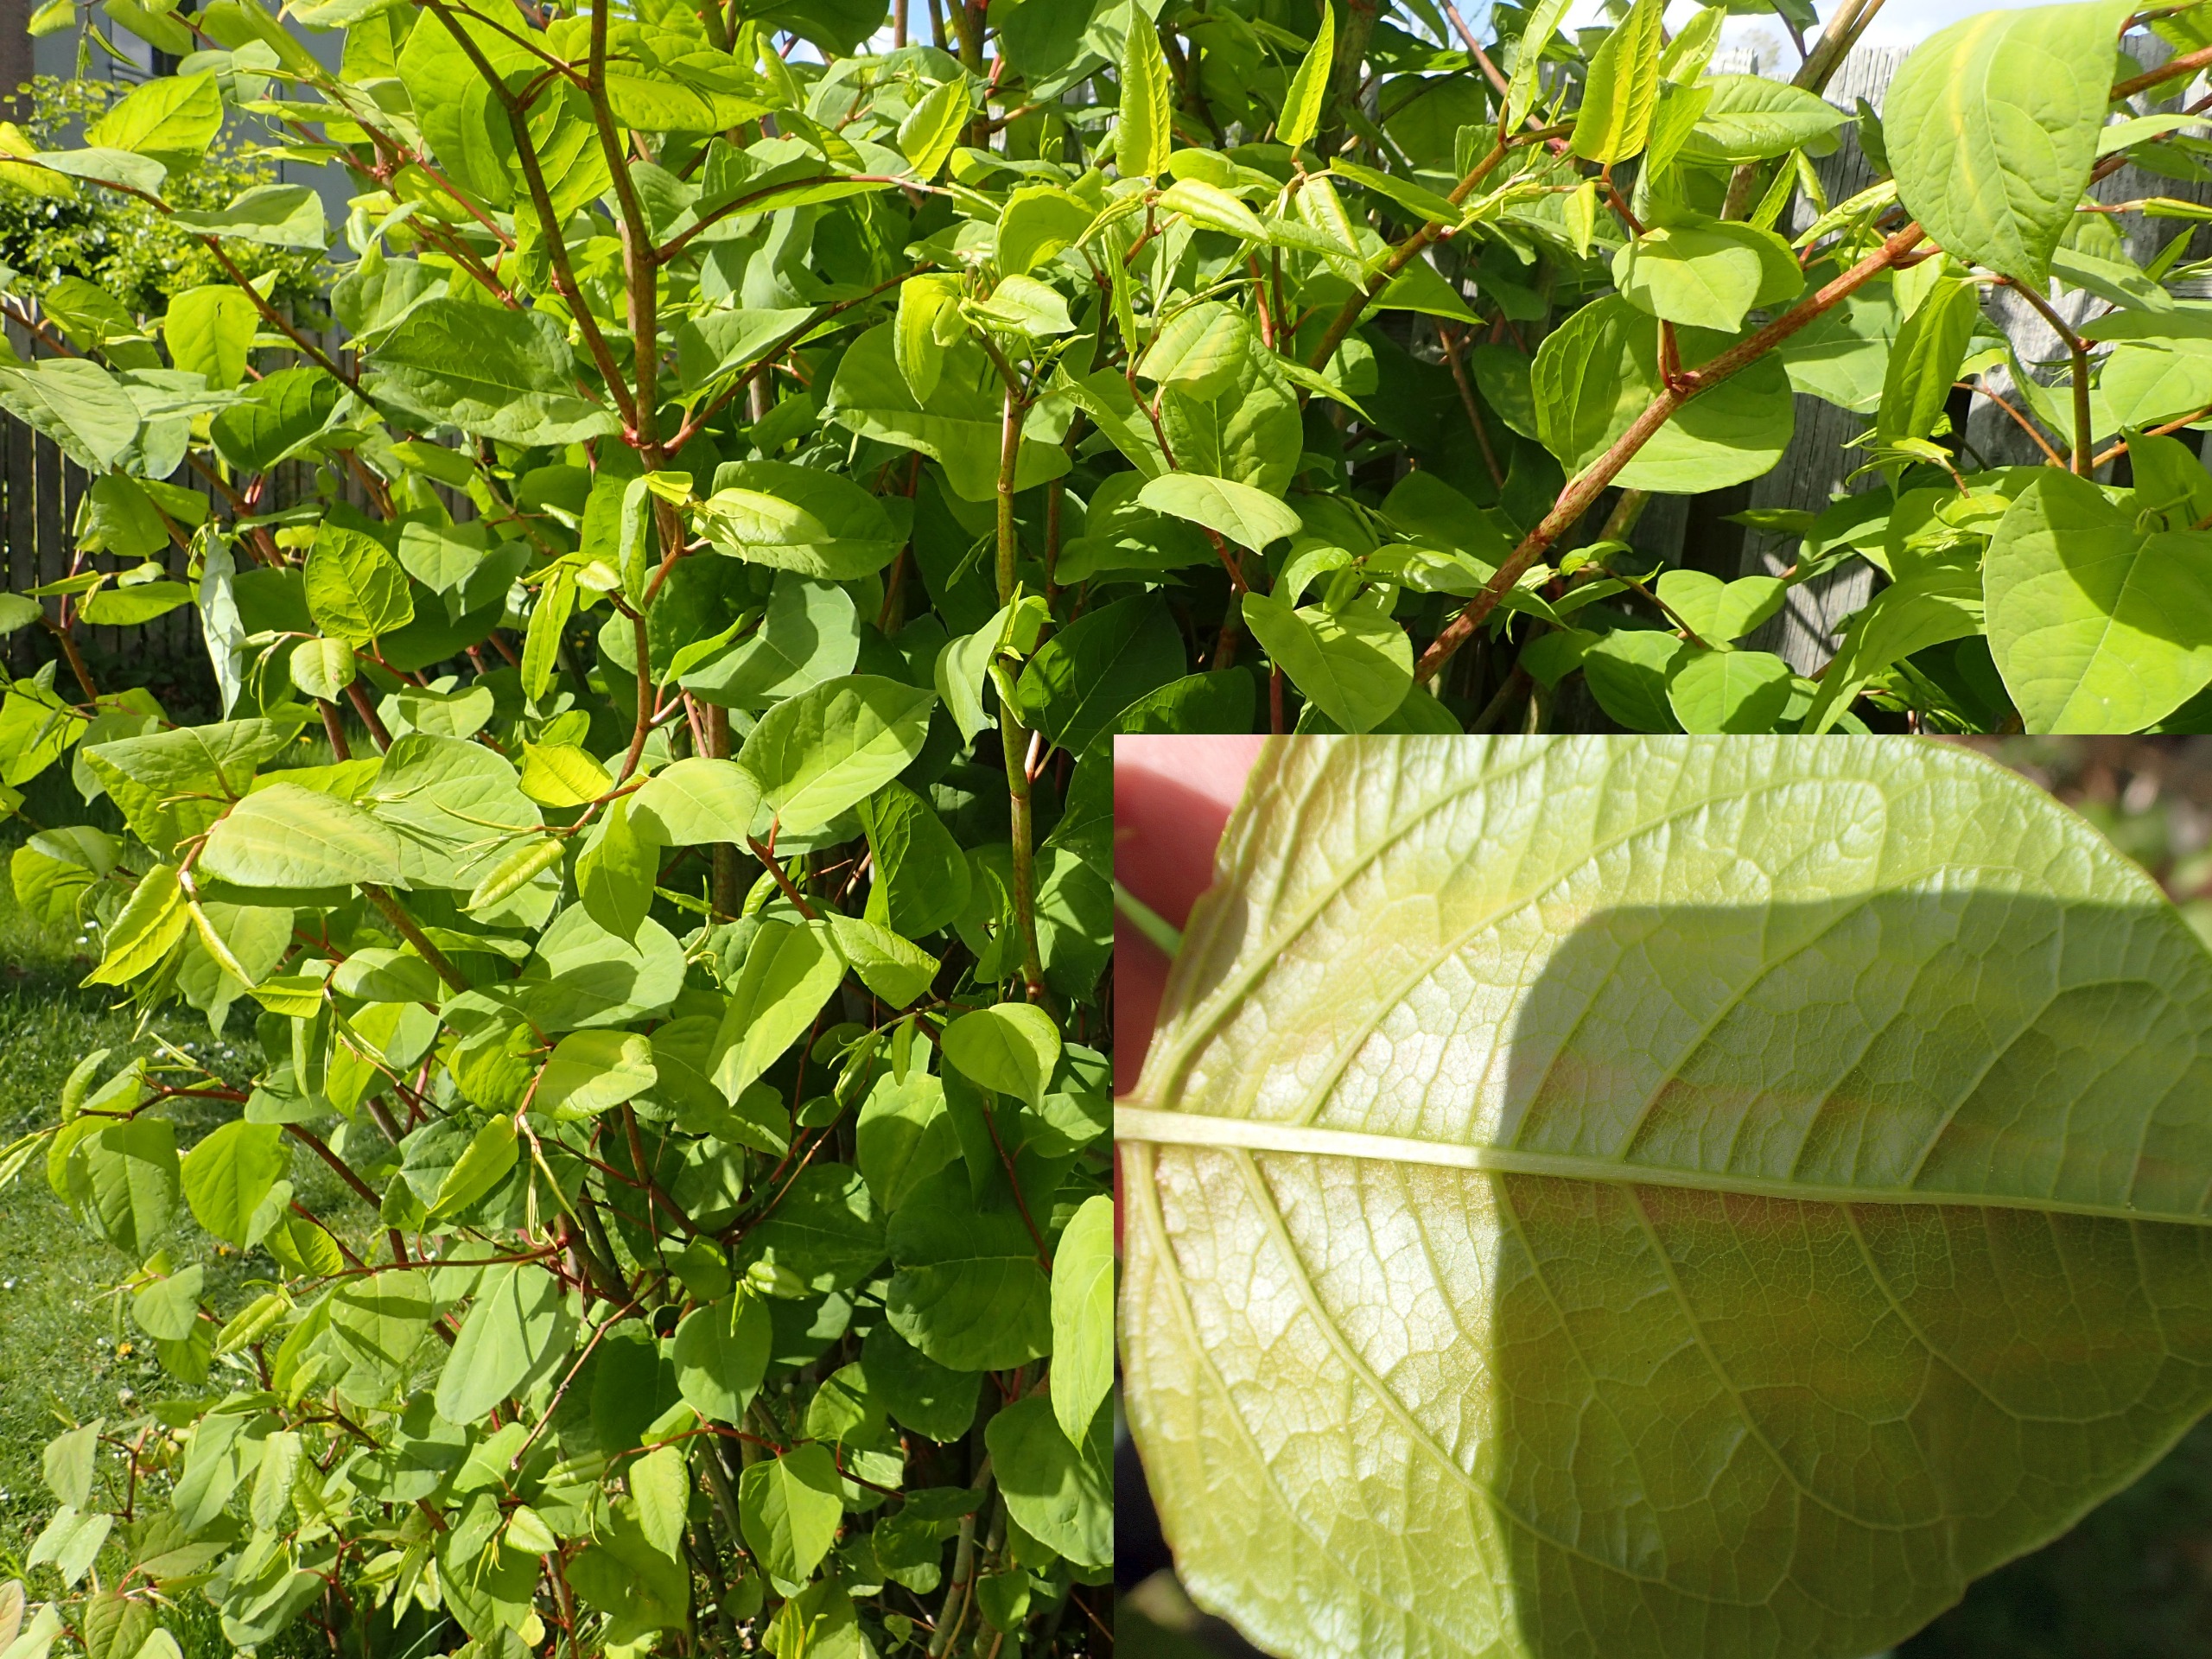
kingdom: Plantae
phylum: Tracheophyta
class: Magnoliopsida
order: Caryophyllales
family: Polygonaceae
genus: Reynoutria
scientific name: Reynoutria japonica
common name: Japan-pileurt
